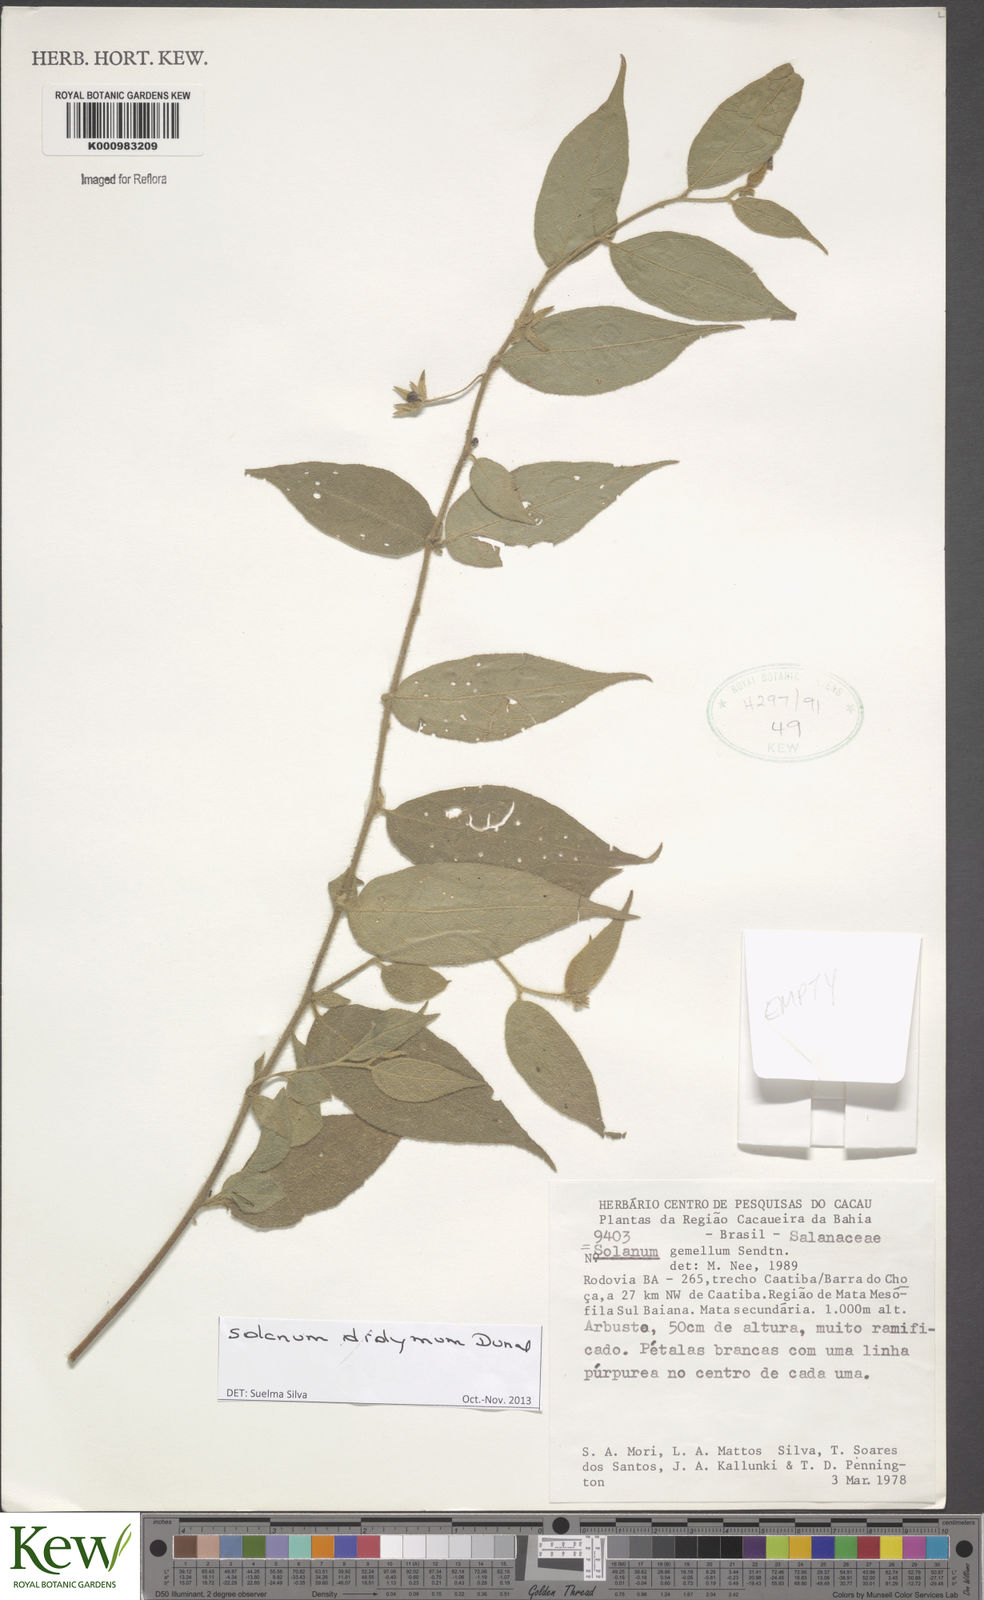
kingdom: Plantae
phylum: Tracheophyta
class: Magnoliopsida
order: Solanales
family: Solanaceae
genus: Solanum
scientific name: Solanum didymum
